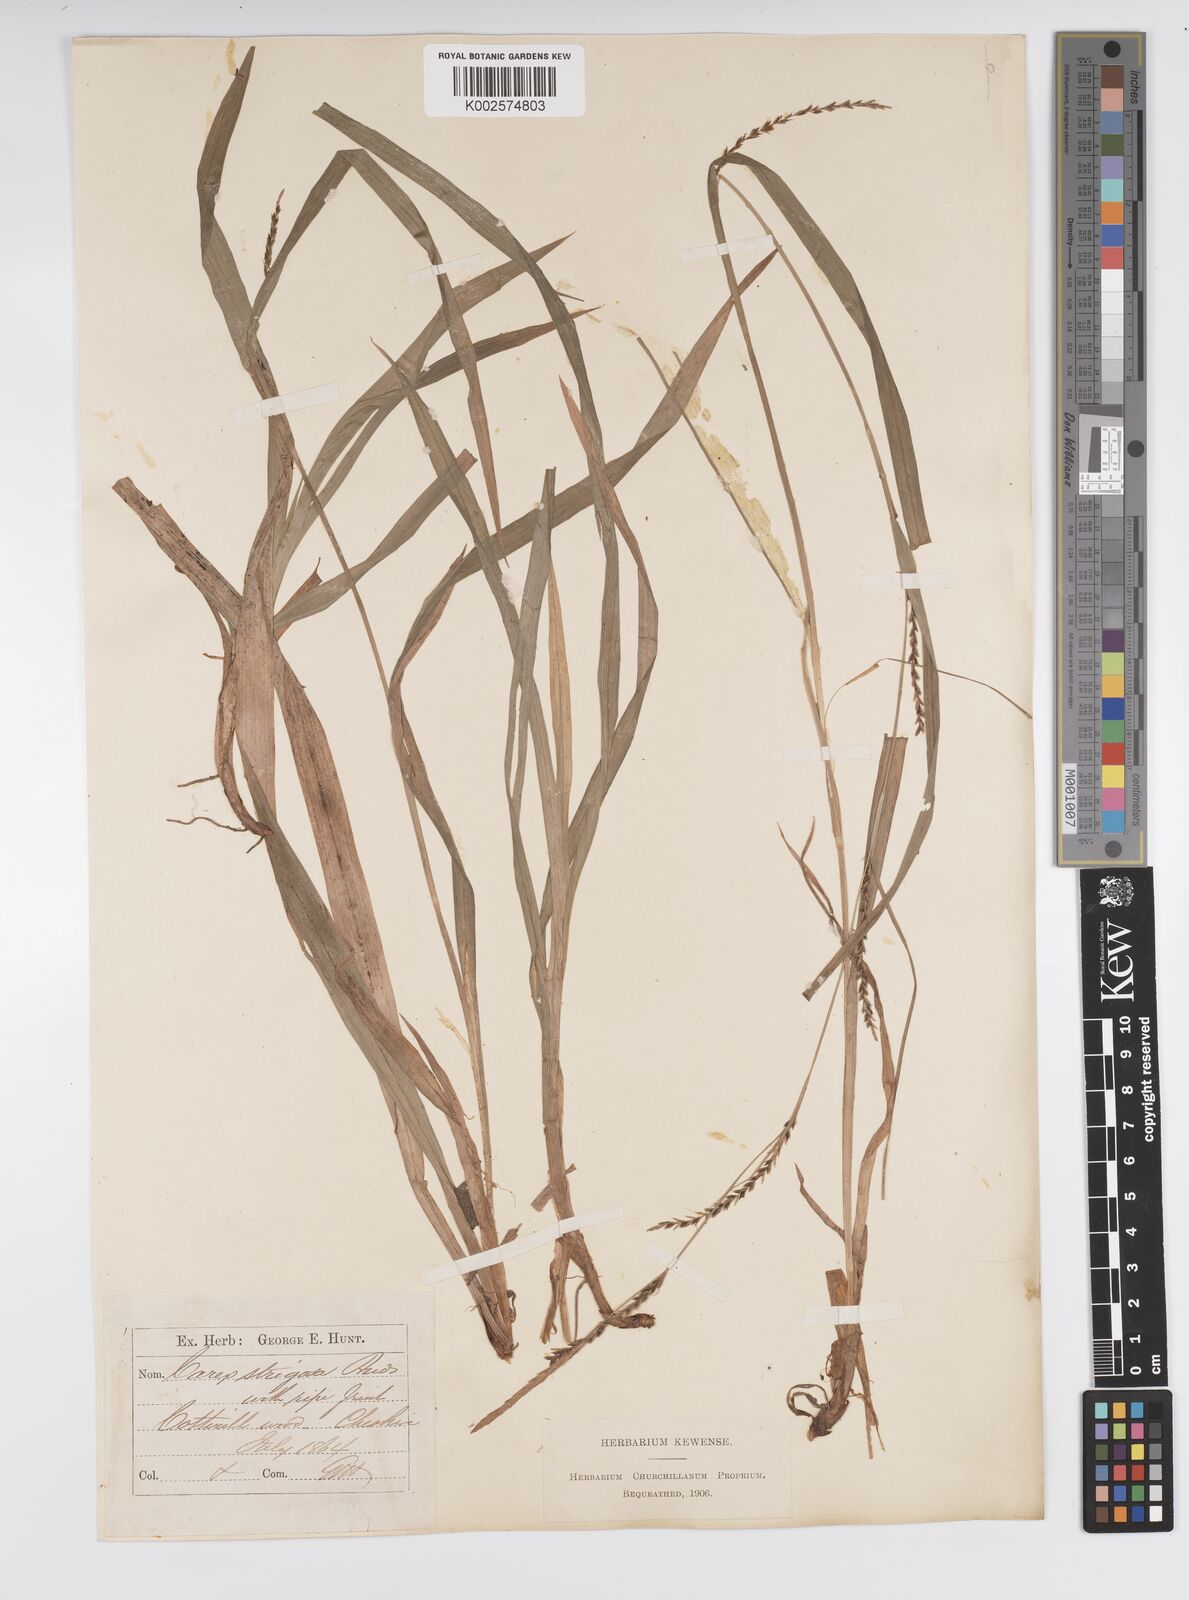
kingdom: Plantae
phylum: Tracheophyta
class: Liliopsida
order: Poales
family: Cyperaceae
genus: Carex
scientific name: Carex strigosa
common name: Thin-spiked wood-sedge
